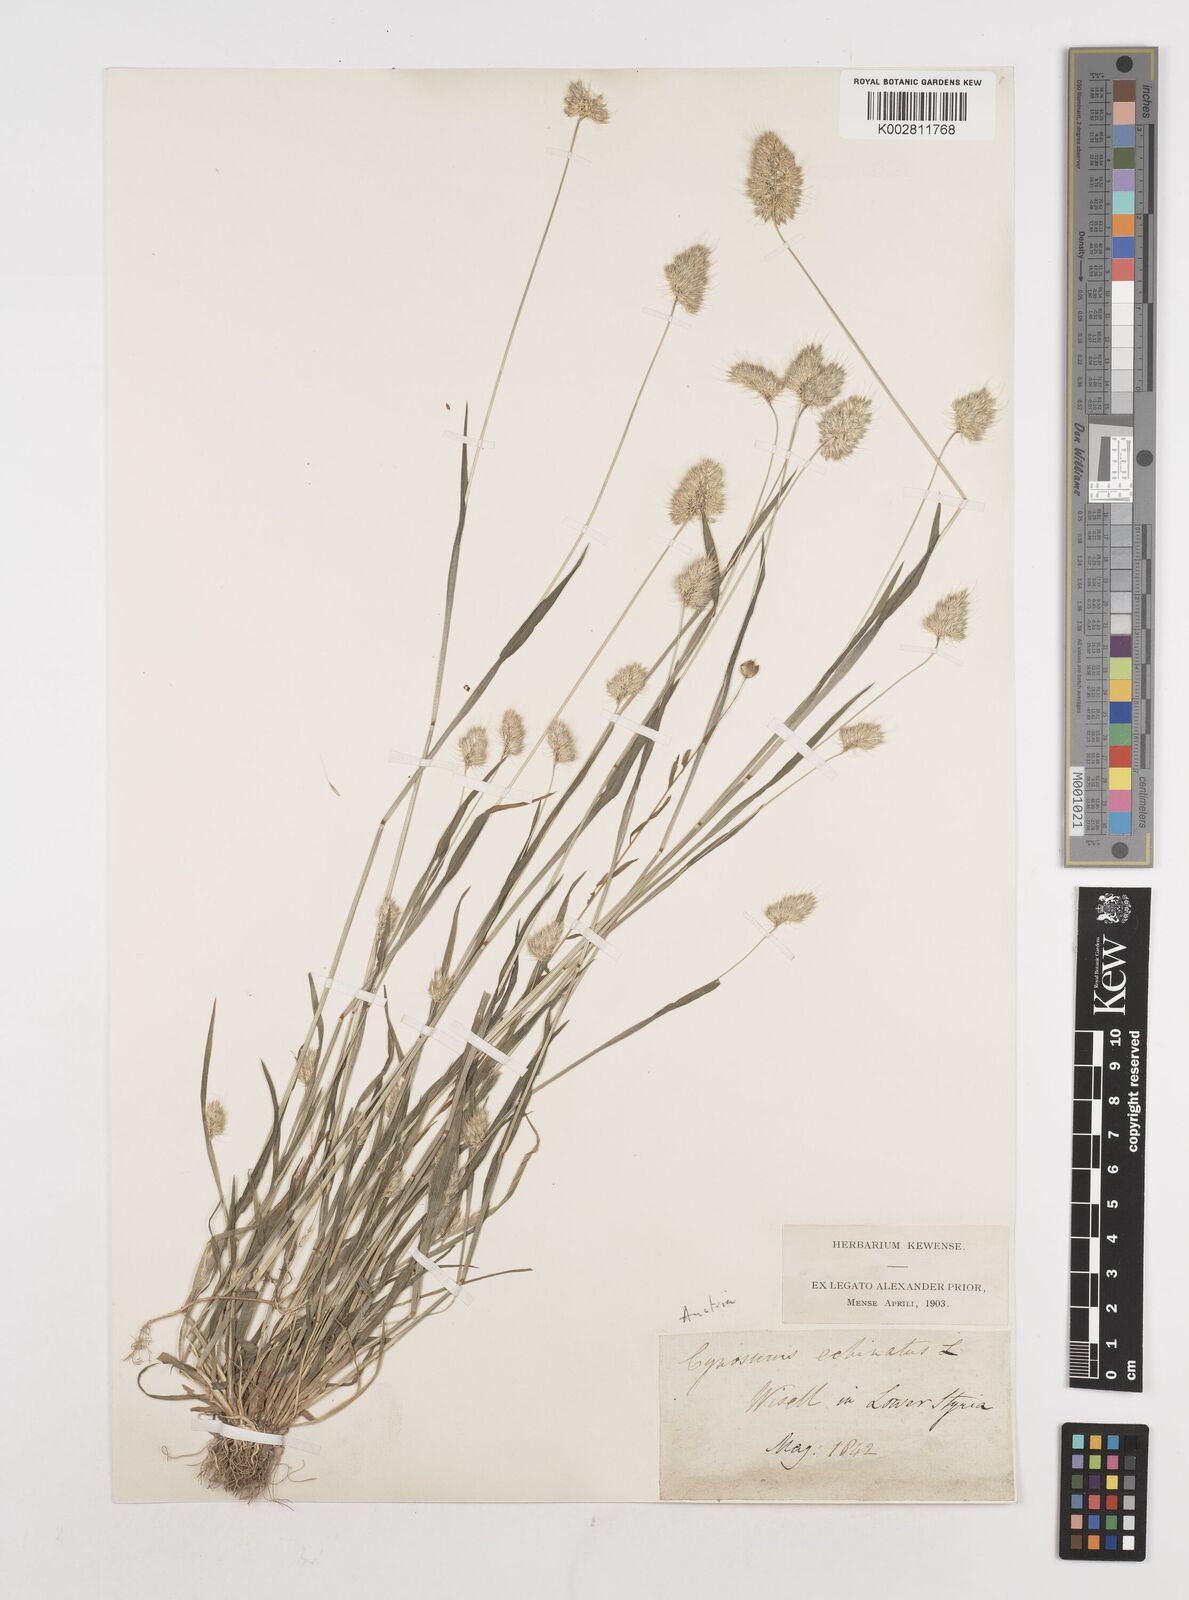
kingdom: Plantae
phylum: Tracheophyta
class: Liliopsida
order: Poales
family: Poaceae
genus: Cynosurus
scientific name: Cynosurus echinatus
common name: Rough dog's-tail
